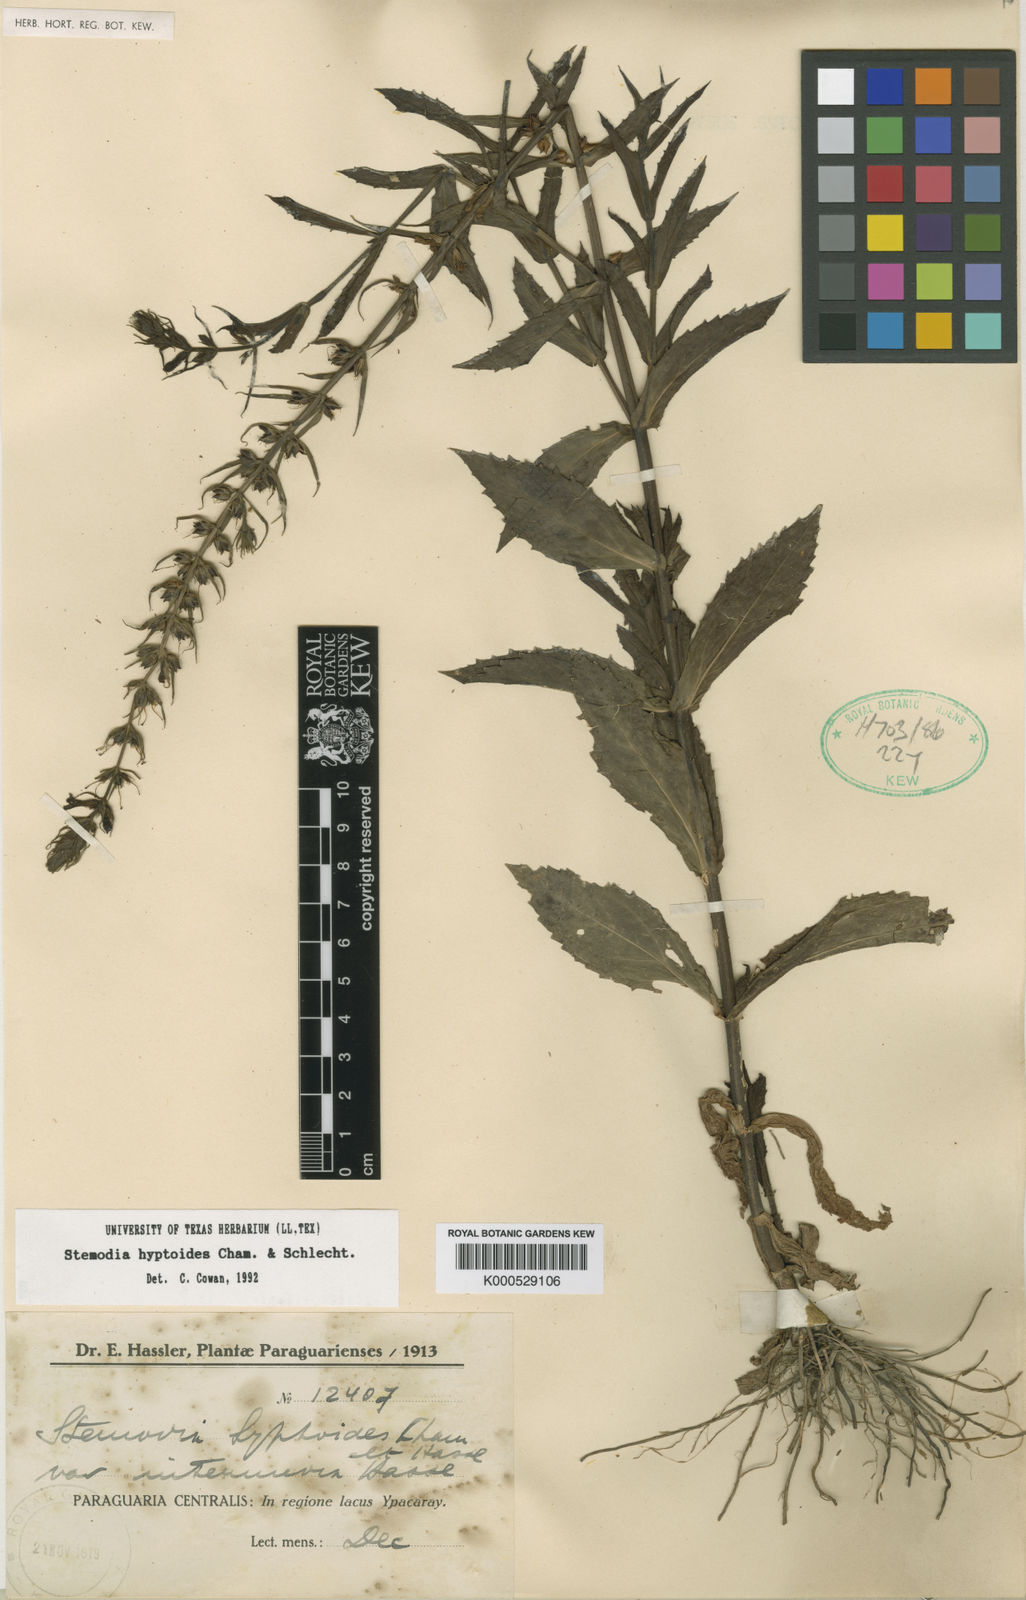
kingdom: Plantae
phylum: Tracheophyta
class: Magnoliopsida
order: Lamiales
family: Plantaginaceae
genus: Stemodia
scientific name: Stemodia hyptoides
